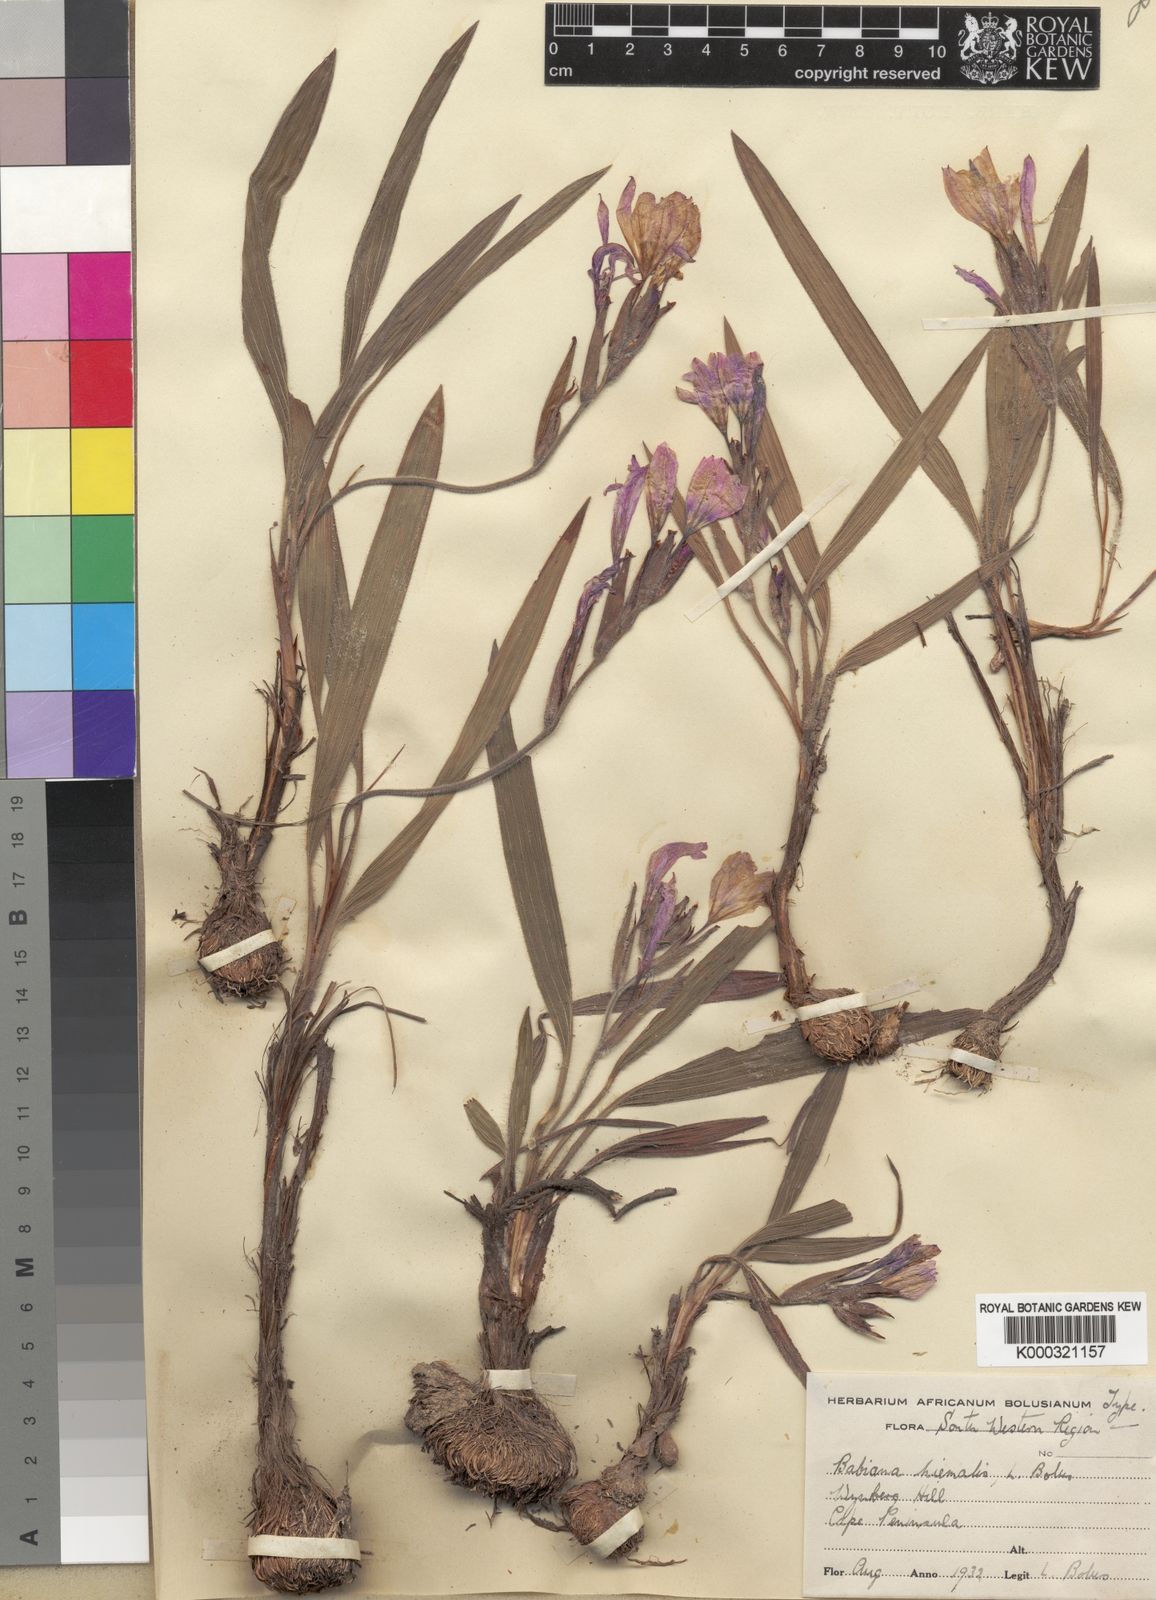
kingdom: Plantae
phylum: Tracheophyta
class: Liliopsida
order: Asparagales
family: Iridaceae
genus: Babiana
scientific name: Babiana villosula
